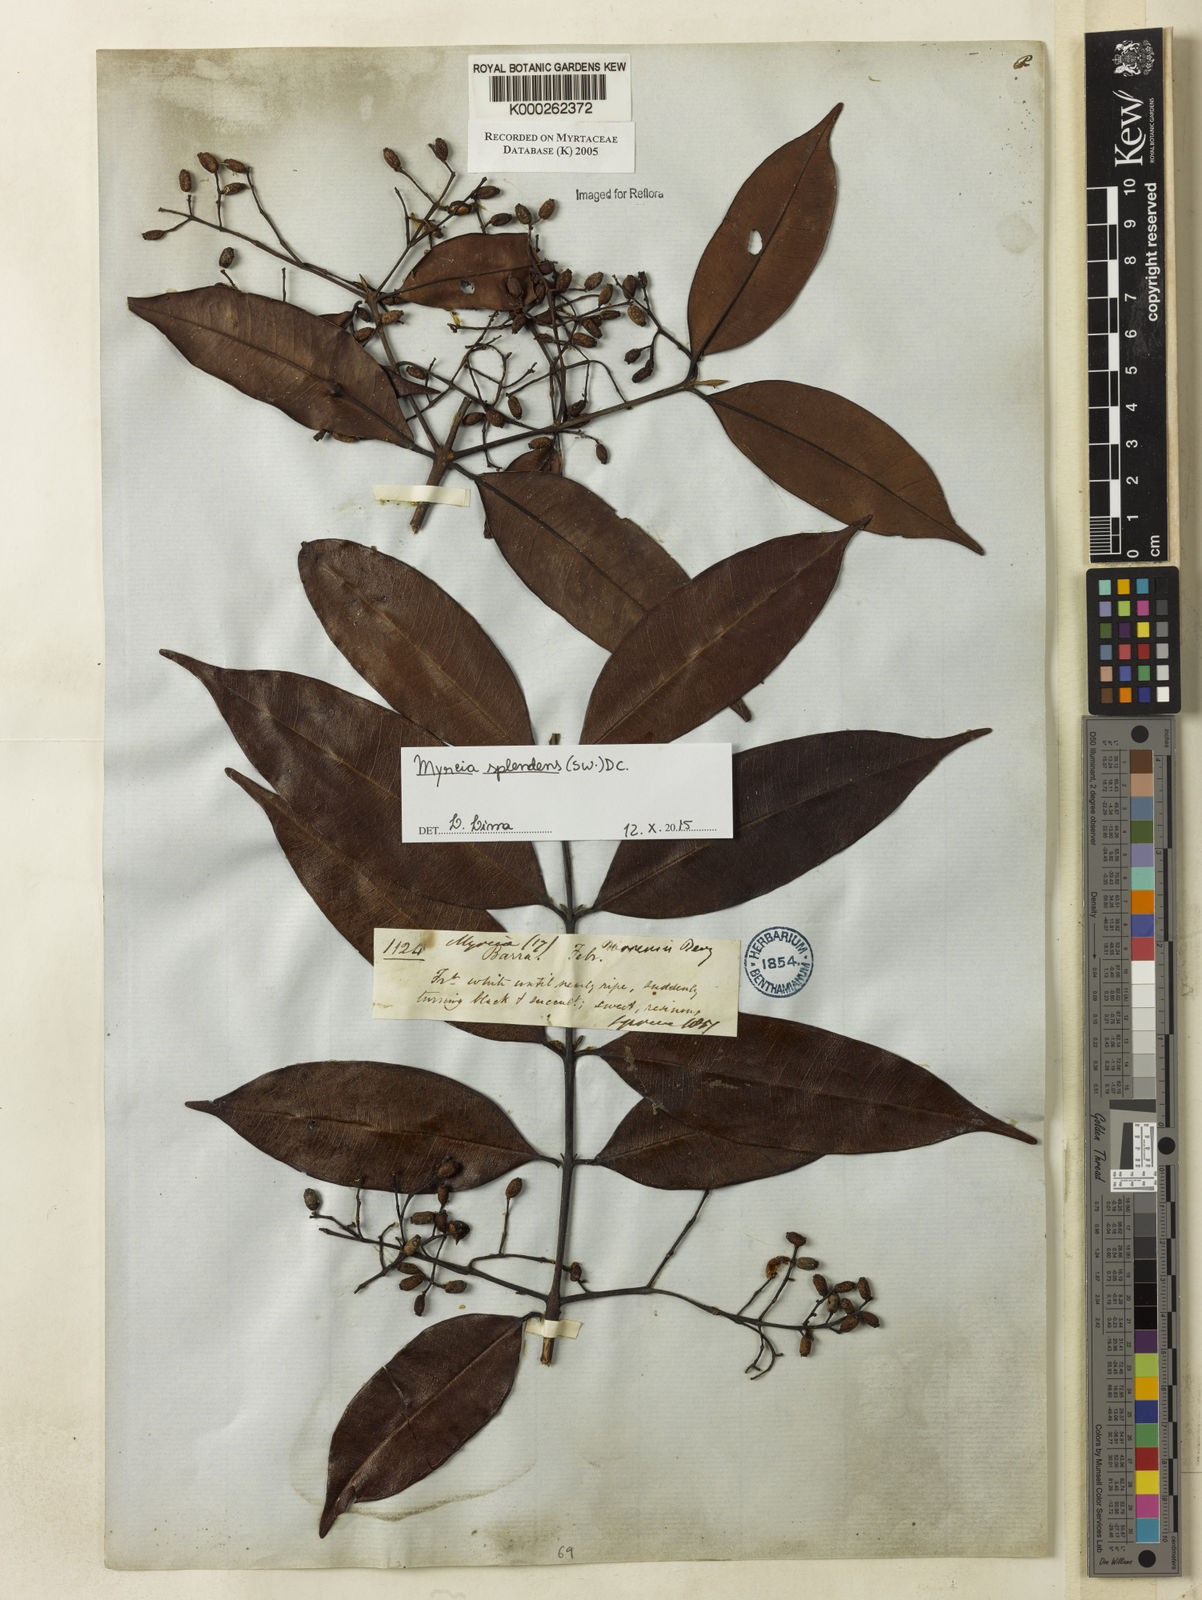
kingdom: Plantae
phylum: Tracheophyta
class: Magnoliopsida
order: Myrtales
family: Myrtaceae
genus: Myrcia
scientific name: Myrcia splendens
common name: Surinam cherry
